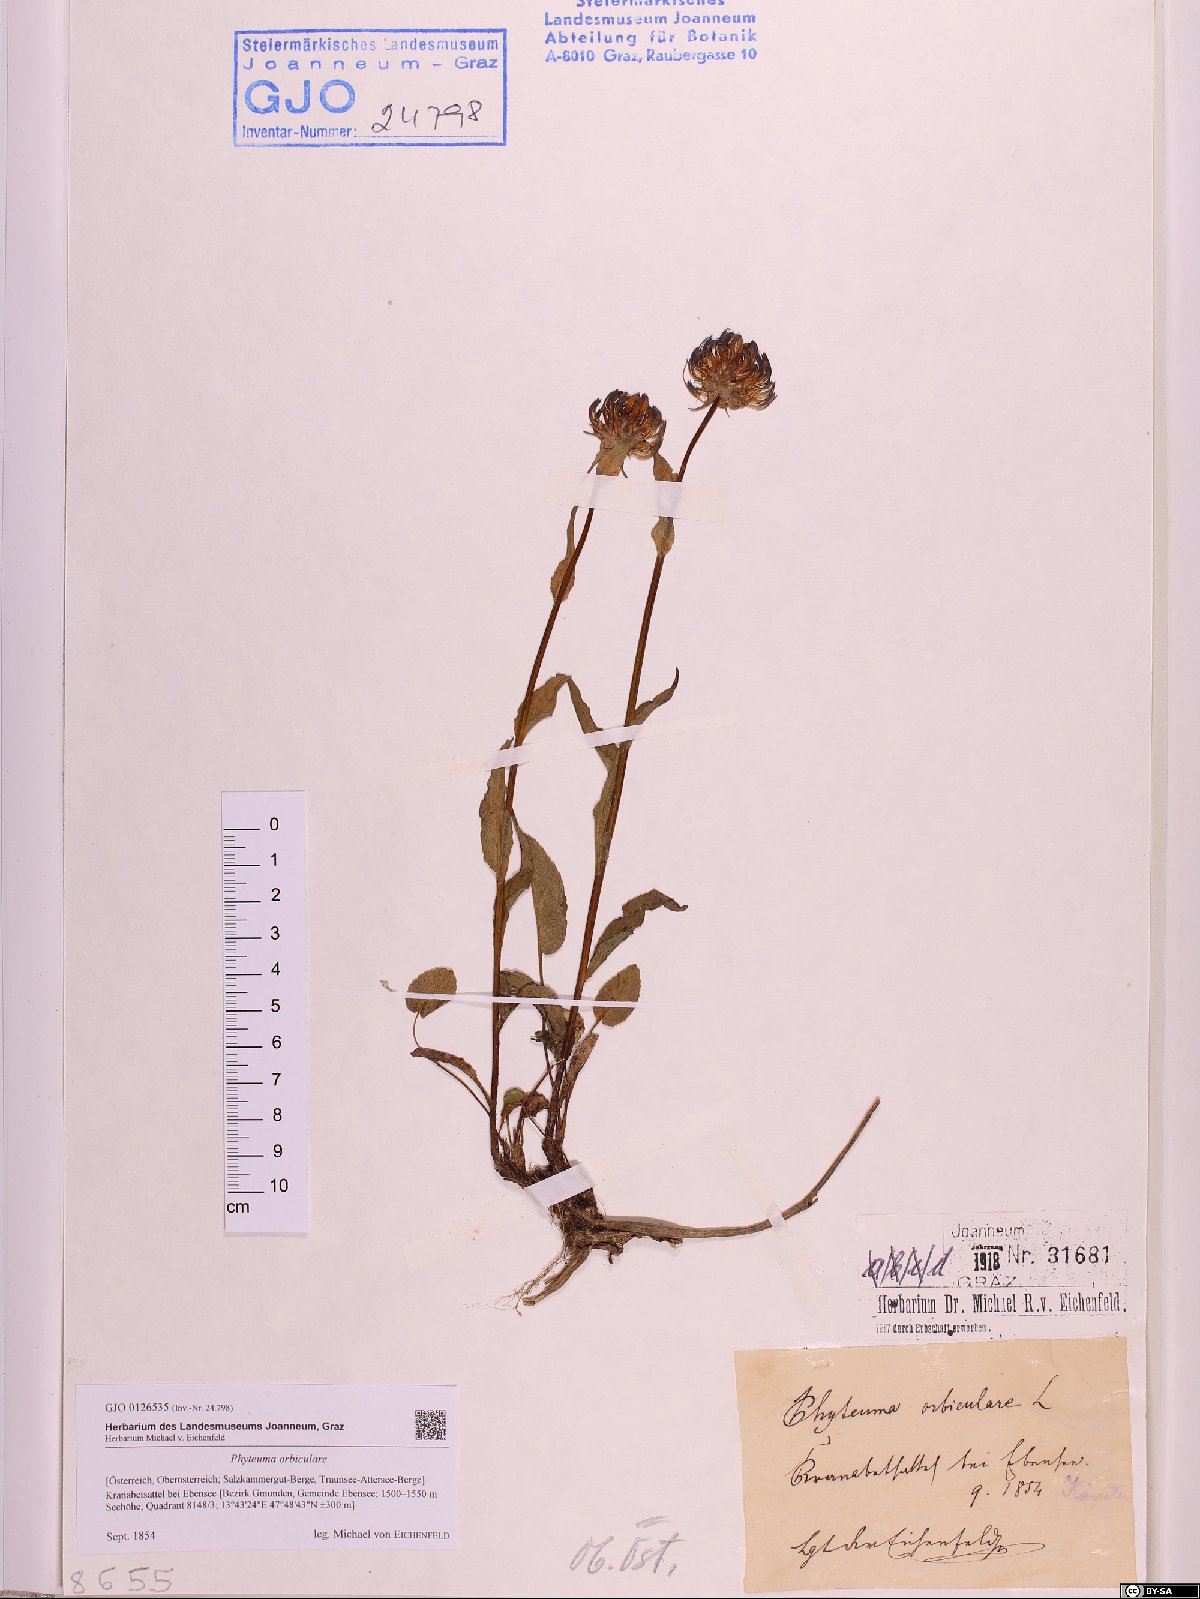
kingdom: Plantae
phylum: Tracheophyta
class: Magnoliopsida
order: Asterales
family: Campanulaceae
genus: Phyteuma
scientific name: Phyteuma orbiculare
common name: Round-headed rampion
